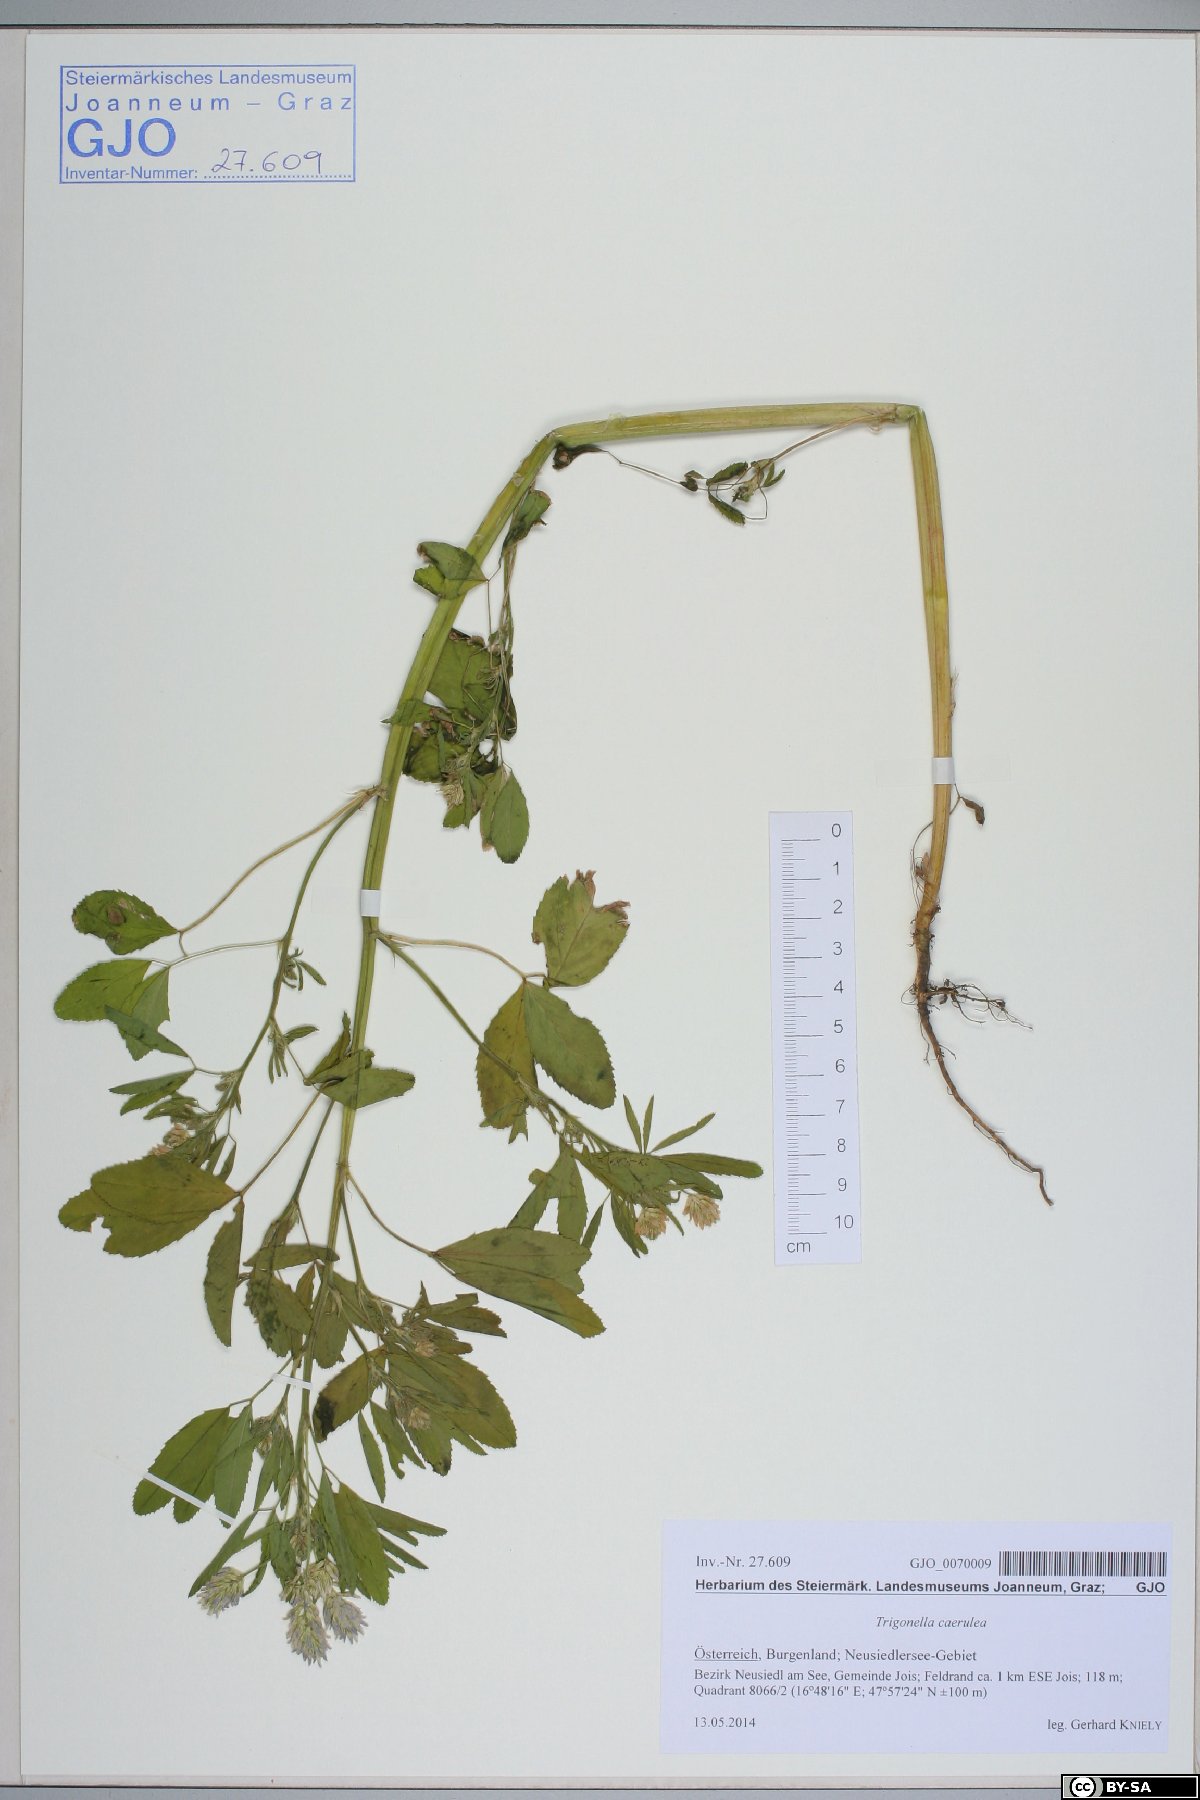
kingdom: Plantae
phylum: Tracheophyta
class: Magnoliopsida
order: Fabales
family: Fabaceae
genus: Trigonella
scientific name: Trigonella caerulea
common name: Blue fenugreek
